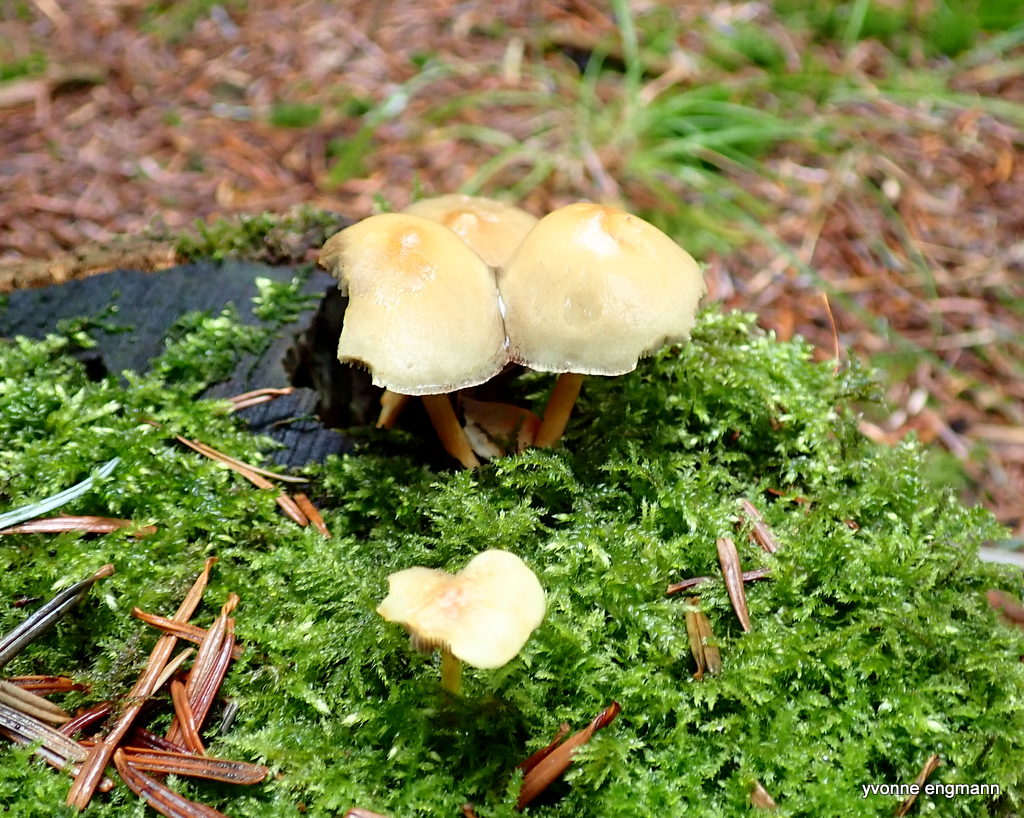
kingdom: Fungi
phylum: Basidiomycota
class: Agaricomycetes
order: Agaricales
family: Strophariaceae
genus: Hypholoma
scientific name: Hypholoma fasciculare
